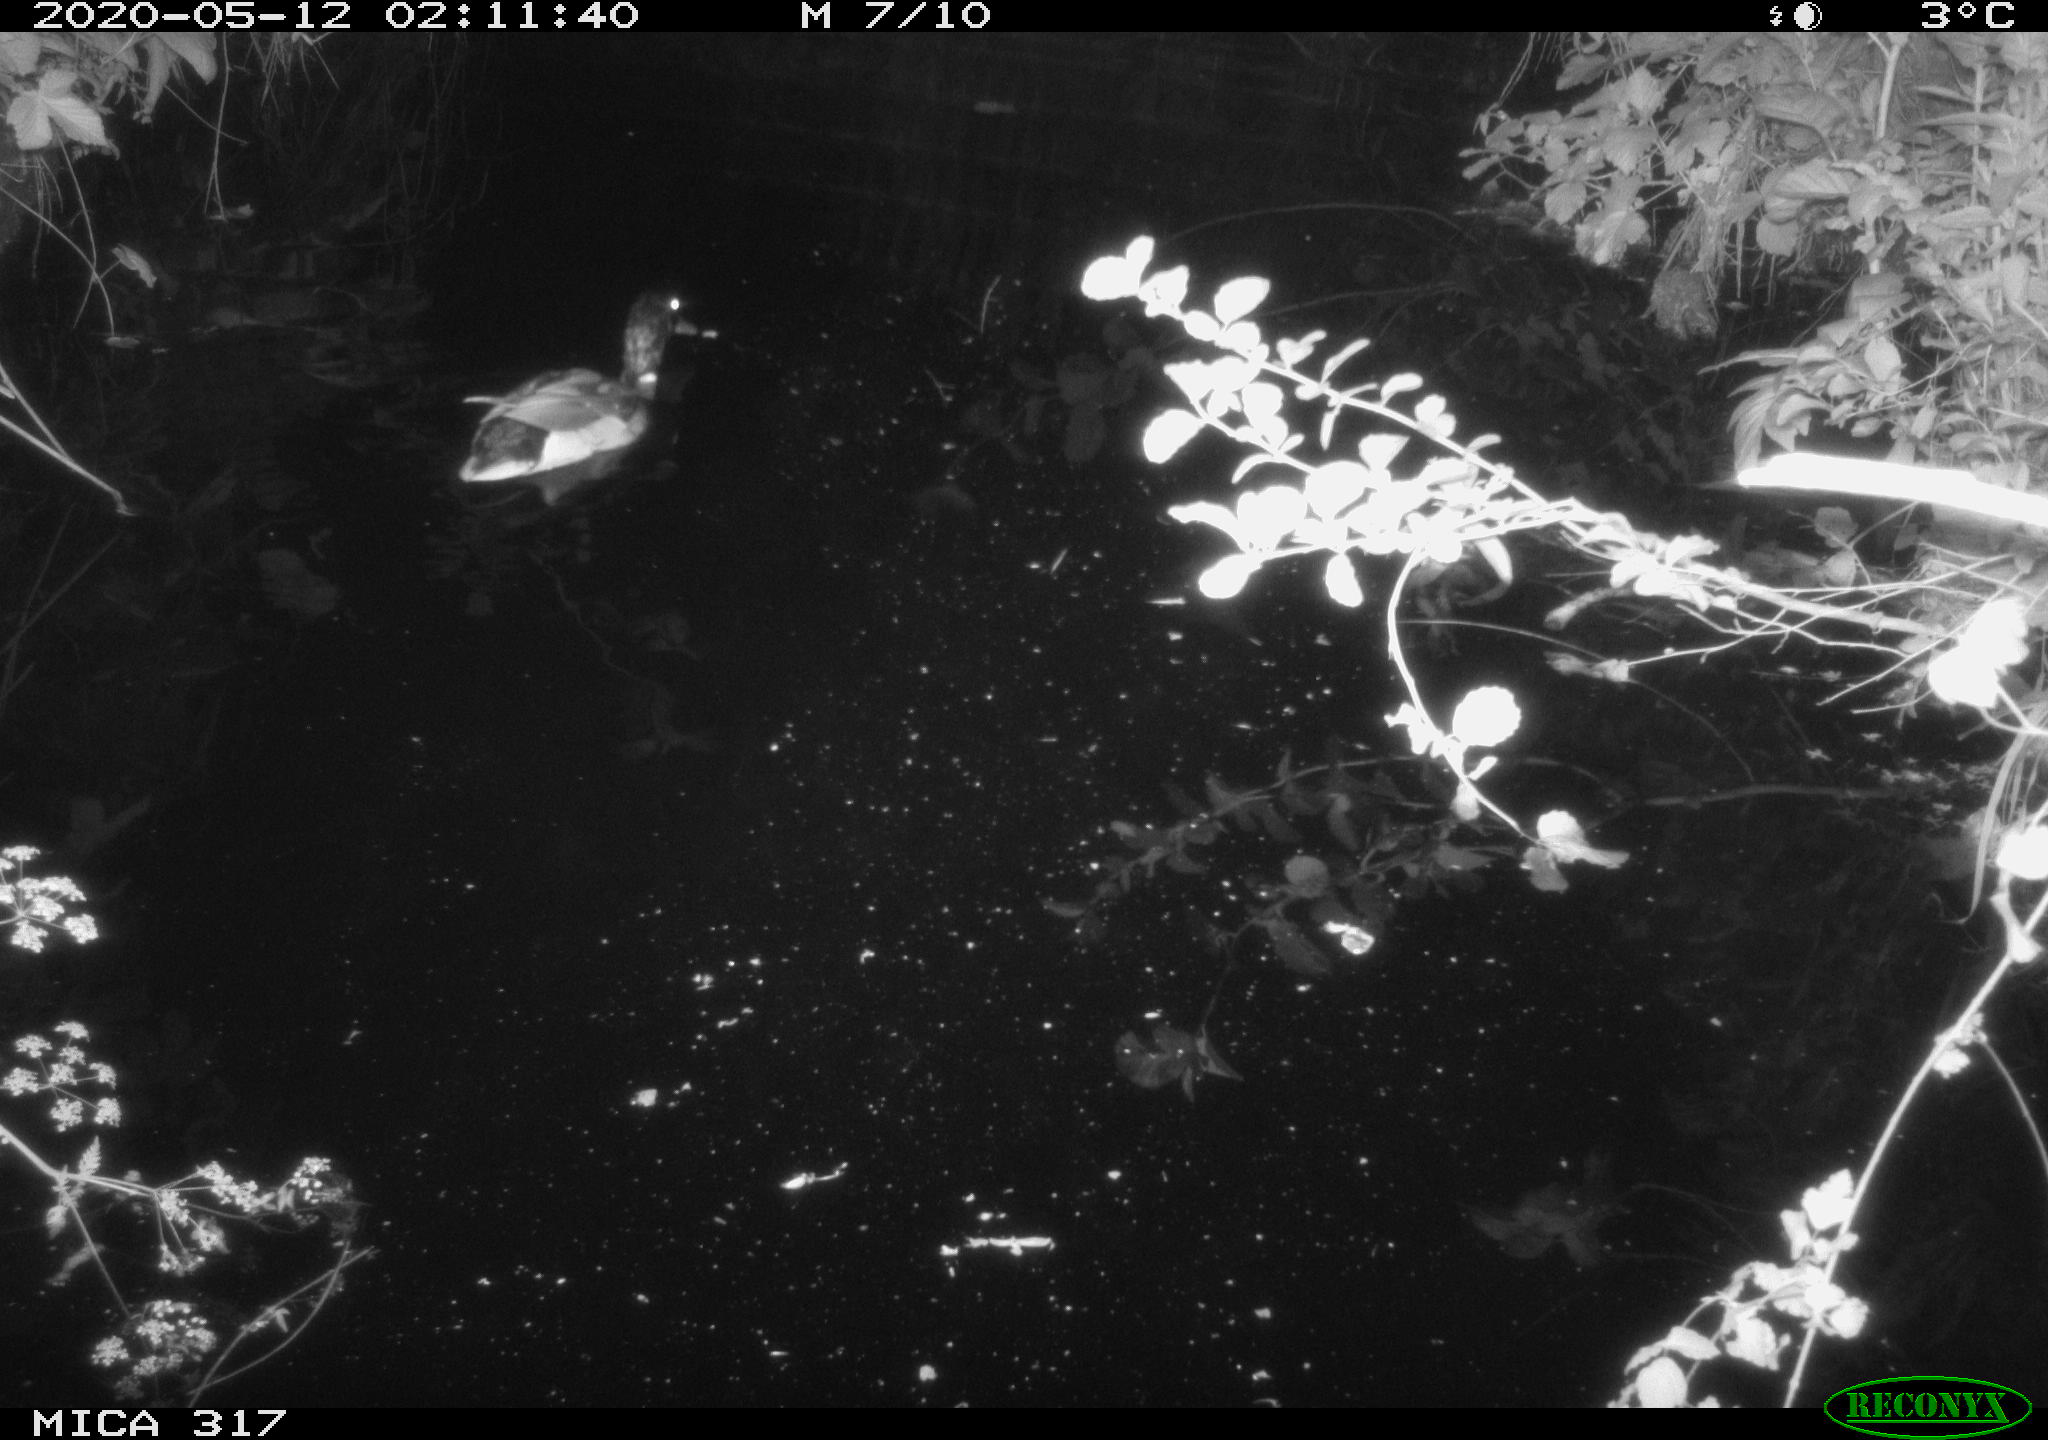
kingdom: Animalia
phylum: Chordata
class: Aves
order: Anseriformes
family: Anatidae
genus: Anas
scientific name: Anas platyrhynchos
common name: Mallard
